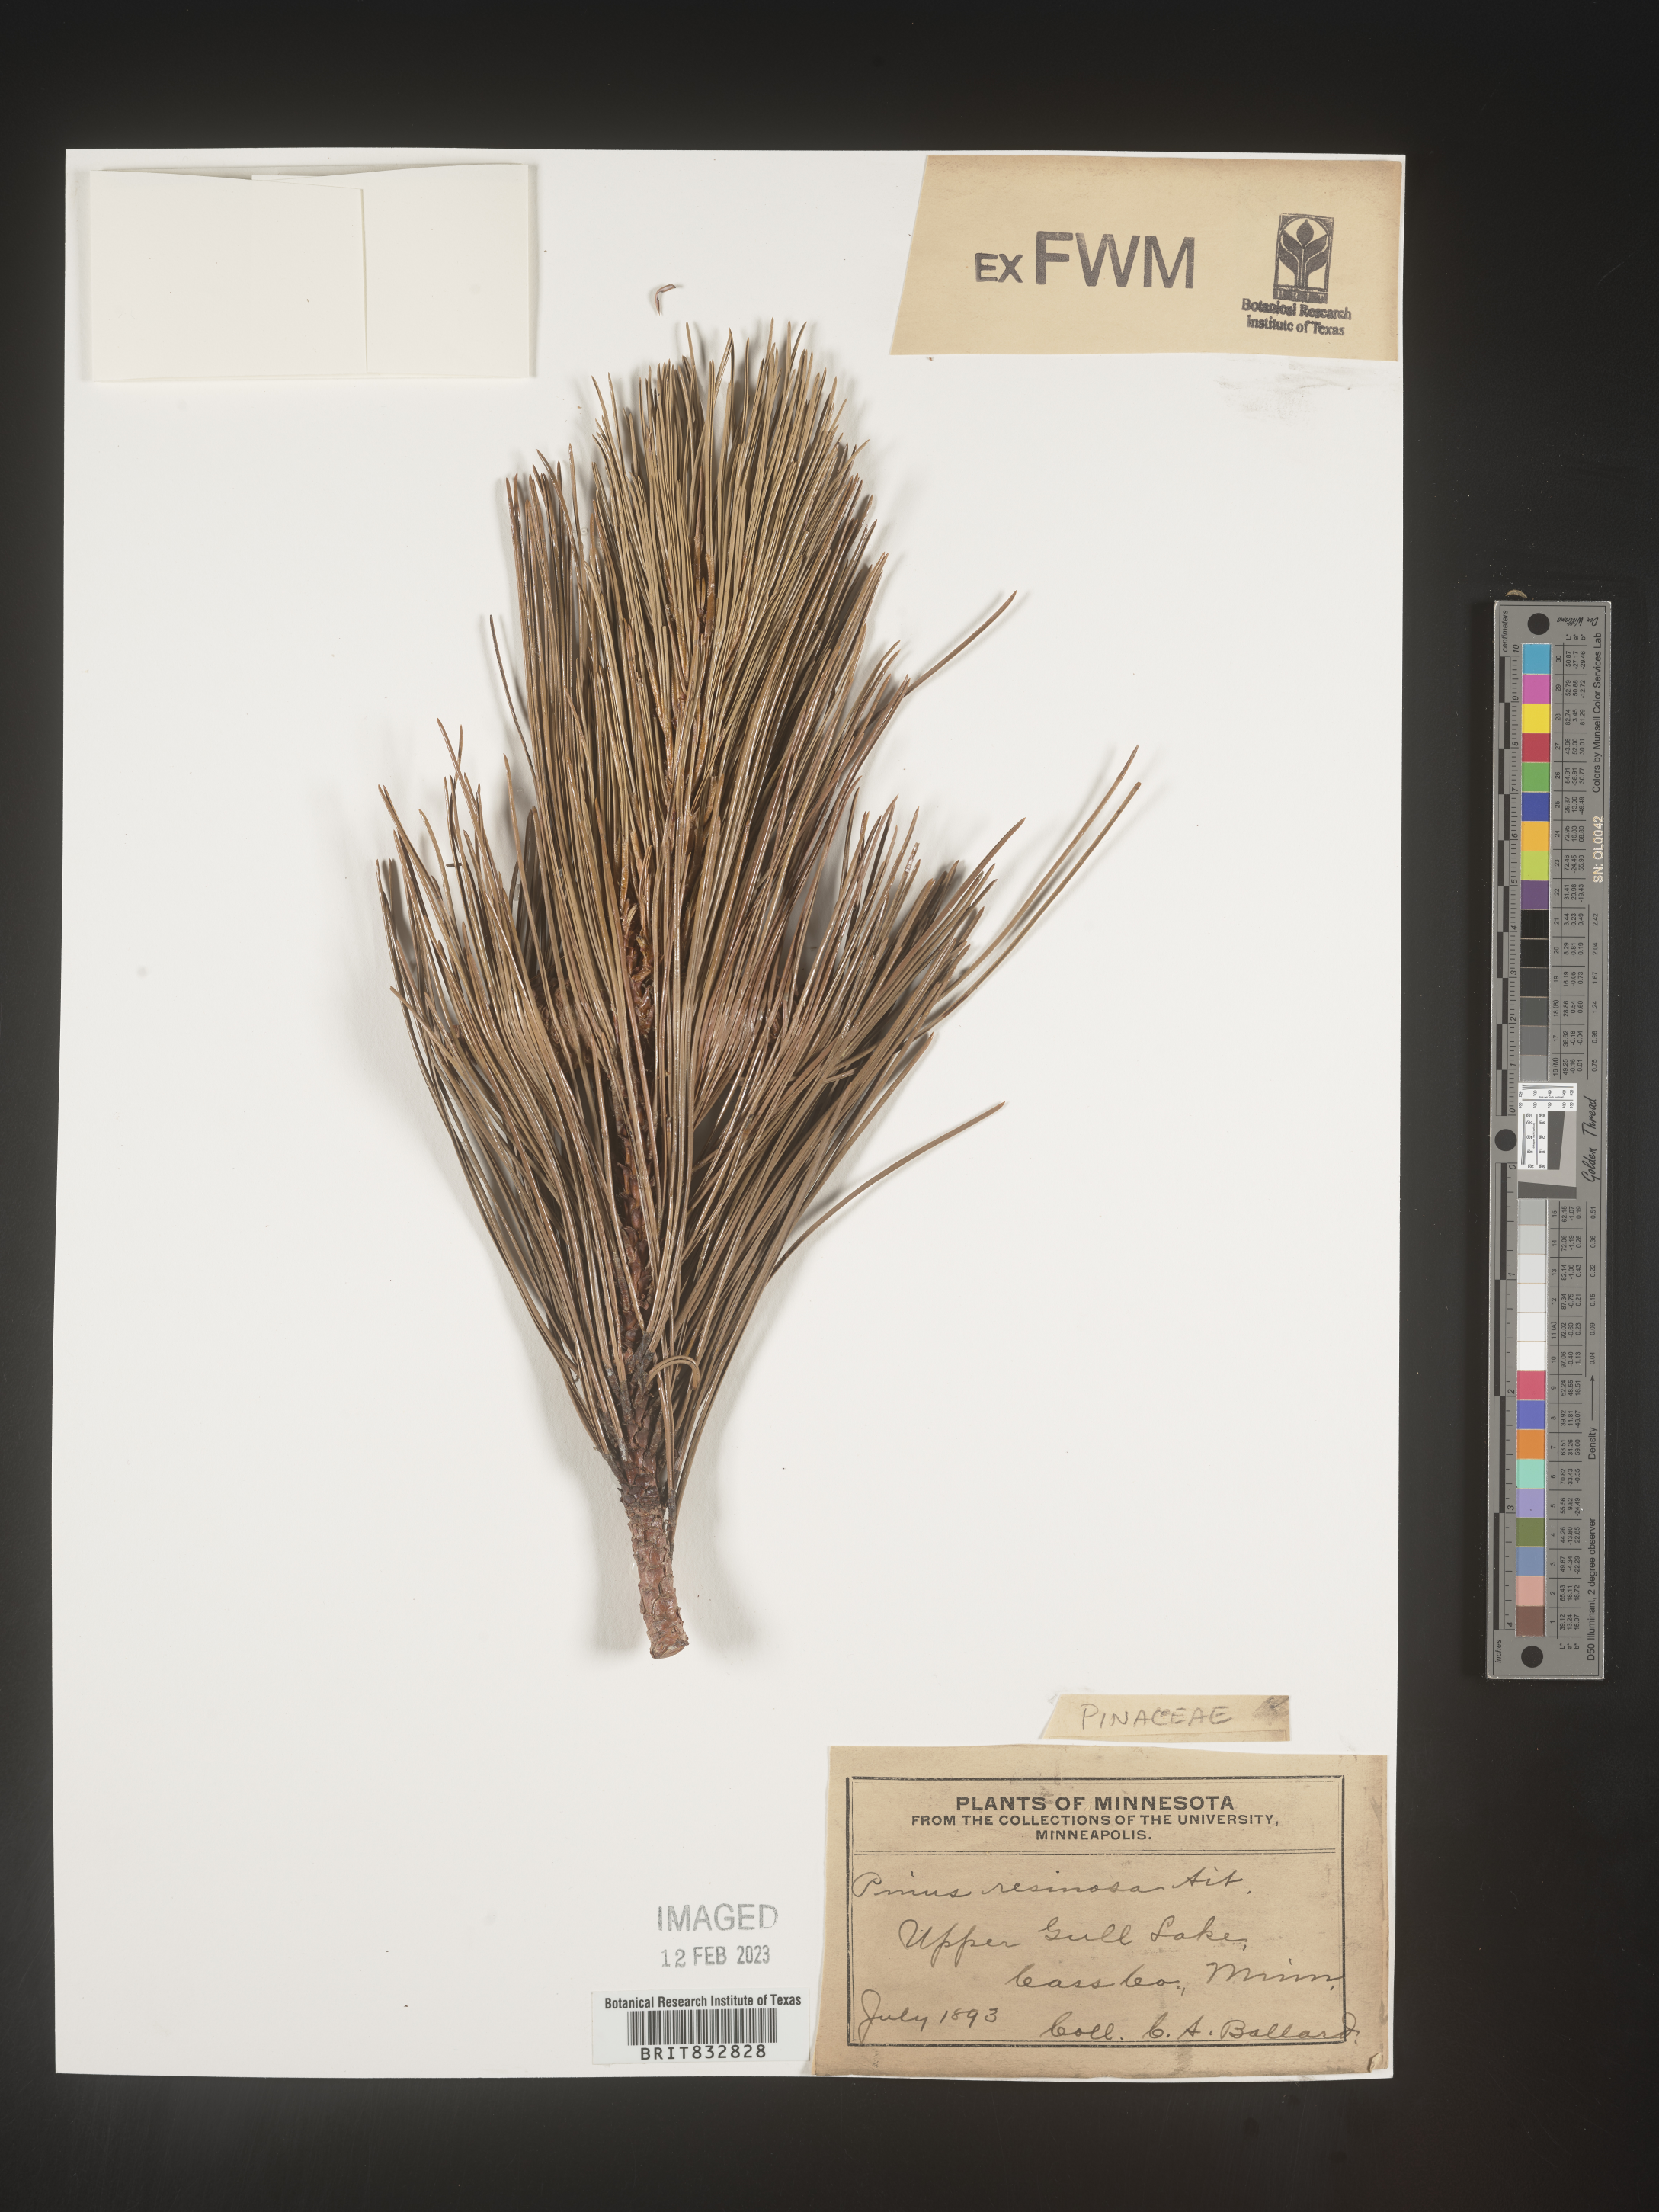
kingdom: Plantae
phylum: Tracheophyta
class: Pinopsida
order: Pinales
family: Pinaceae
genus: Pinus
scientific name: Pinus resinosa
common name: Norway pine
